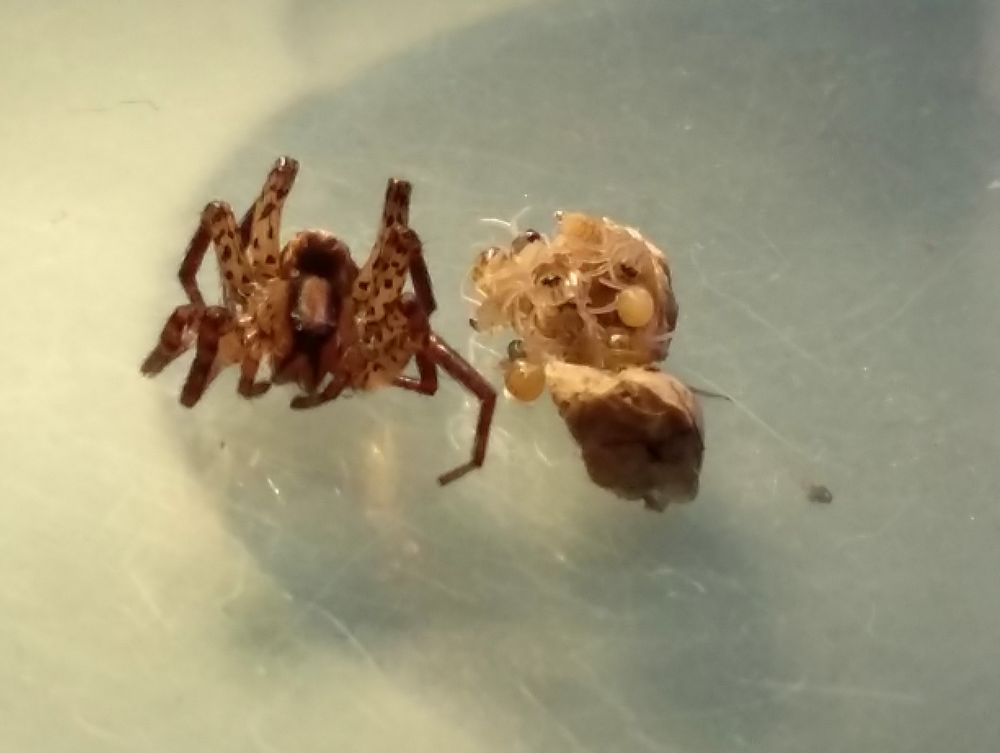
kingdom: Animalia
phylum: Arthropoda
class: Arachnida
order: Araneae
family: Lycosidae
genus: Hygrolycosa
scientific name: Hygrolycosa rubrofasciata
